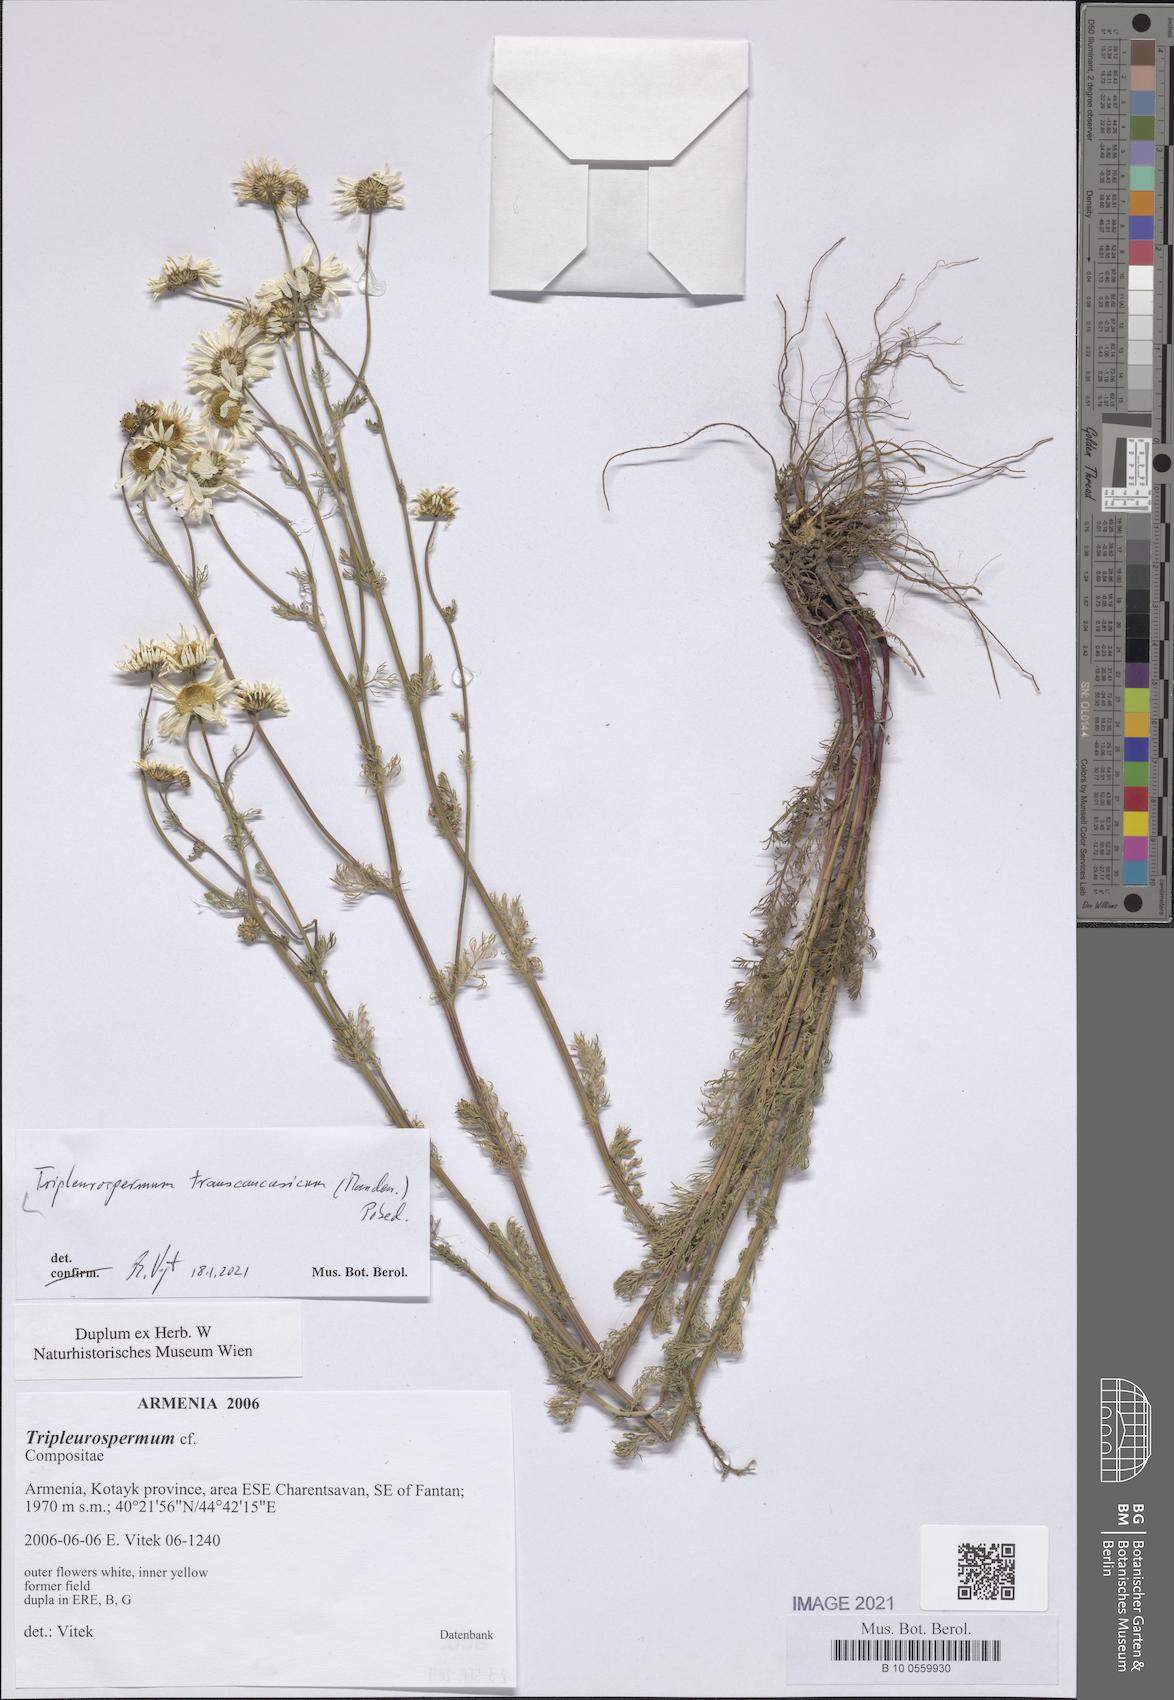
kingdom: Plantae
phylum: Tracheophyta
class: Magnoliopsida
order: Asterales
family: Asteraceae
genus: Tripleurospermum
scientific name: Tripleurospermum transcaucasicum
